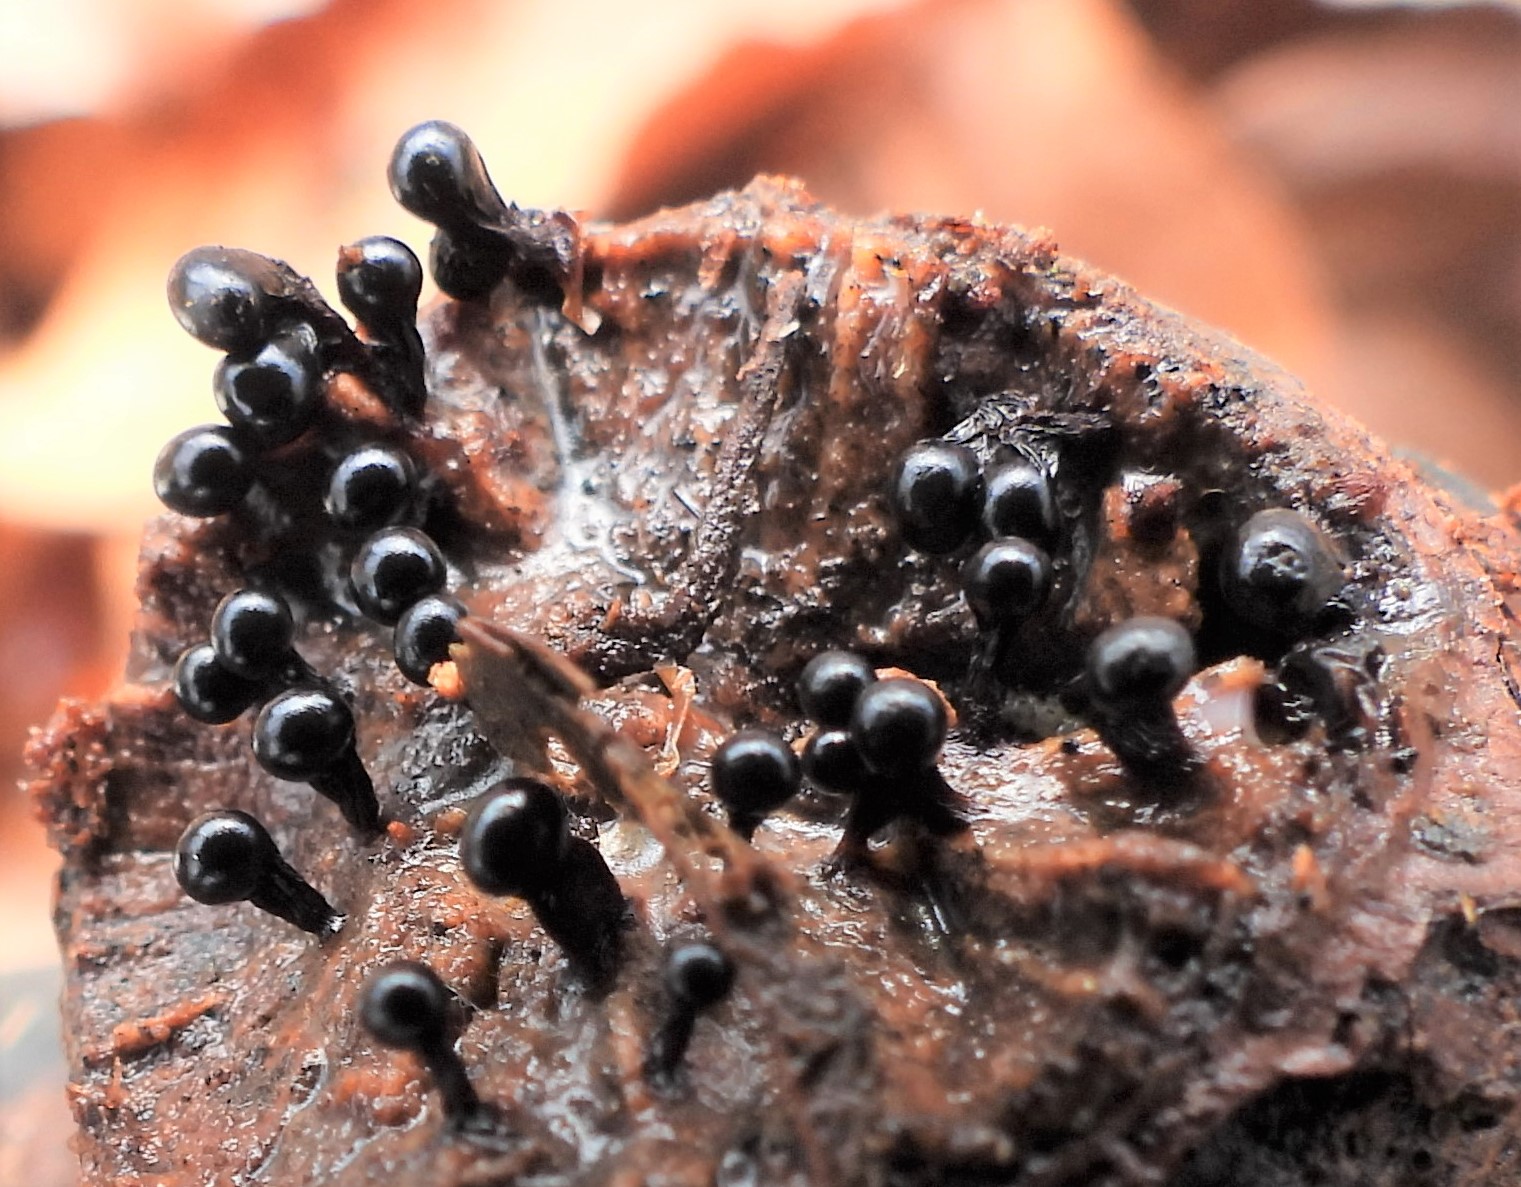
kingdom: Protozoa
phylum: Mycetozoa
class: Myxomycetes
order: Trichiales
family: Trichiaceae
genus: Metatrichia
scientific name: Metatrichia floriformis
